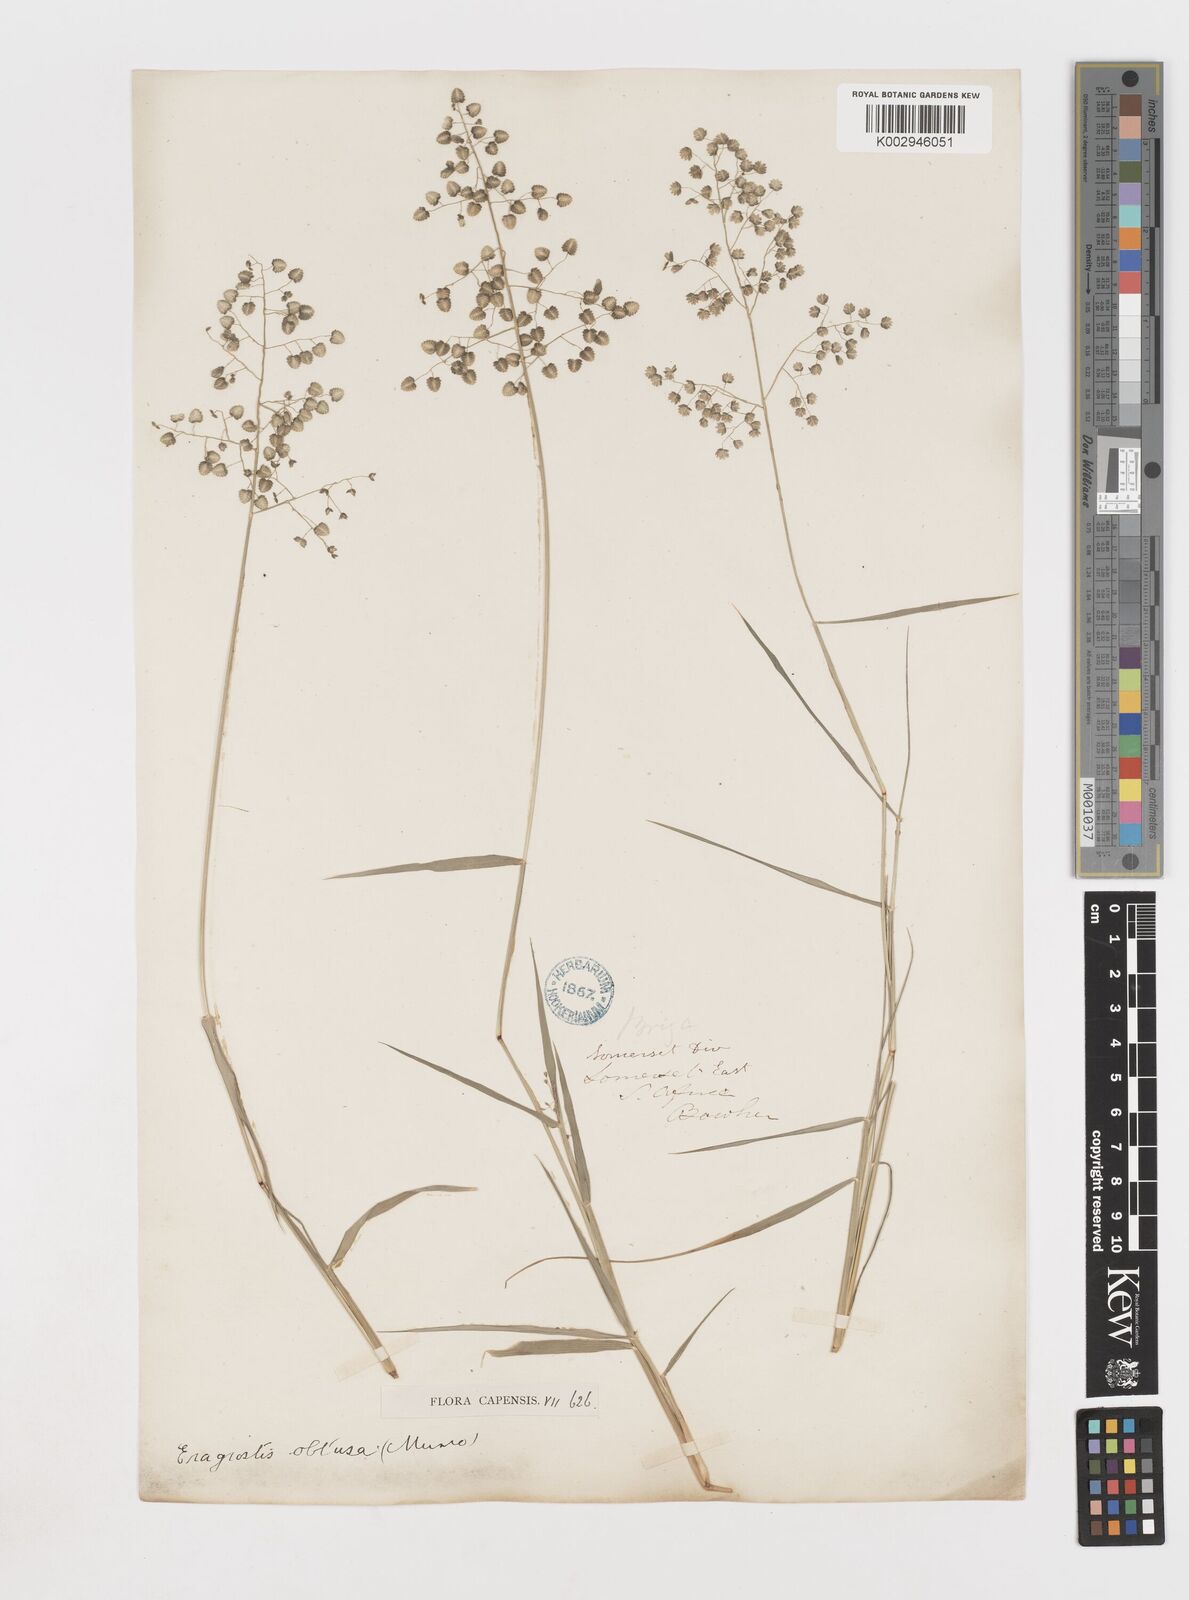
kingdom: Plantae
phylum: Tracheophyta
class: Liliopsida
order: Poales
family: Poaceae
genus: Eragrostis
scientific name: Eragrostis obtusa
